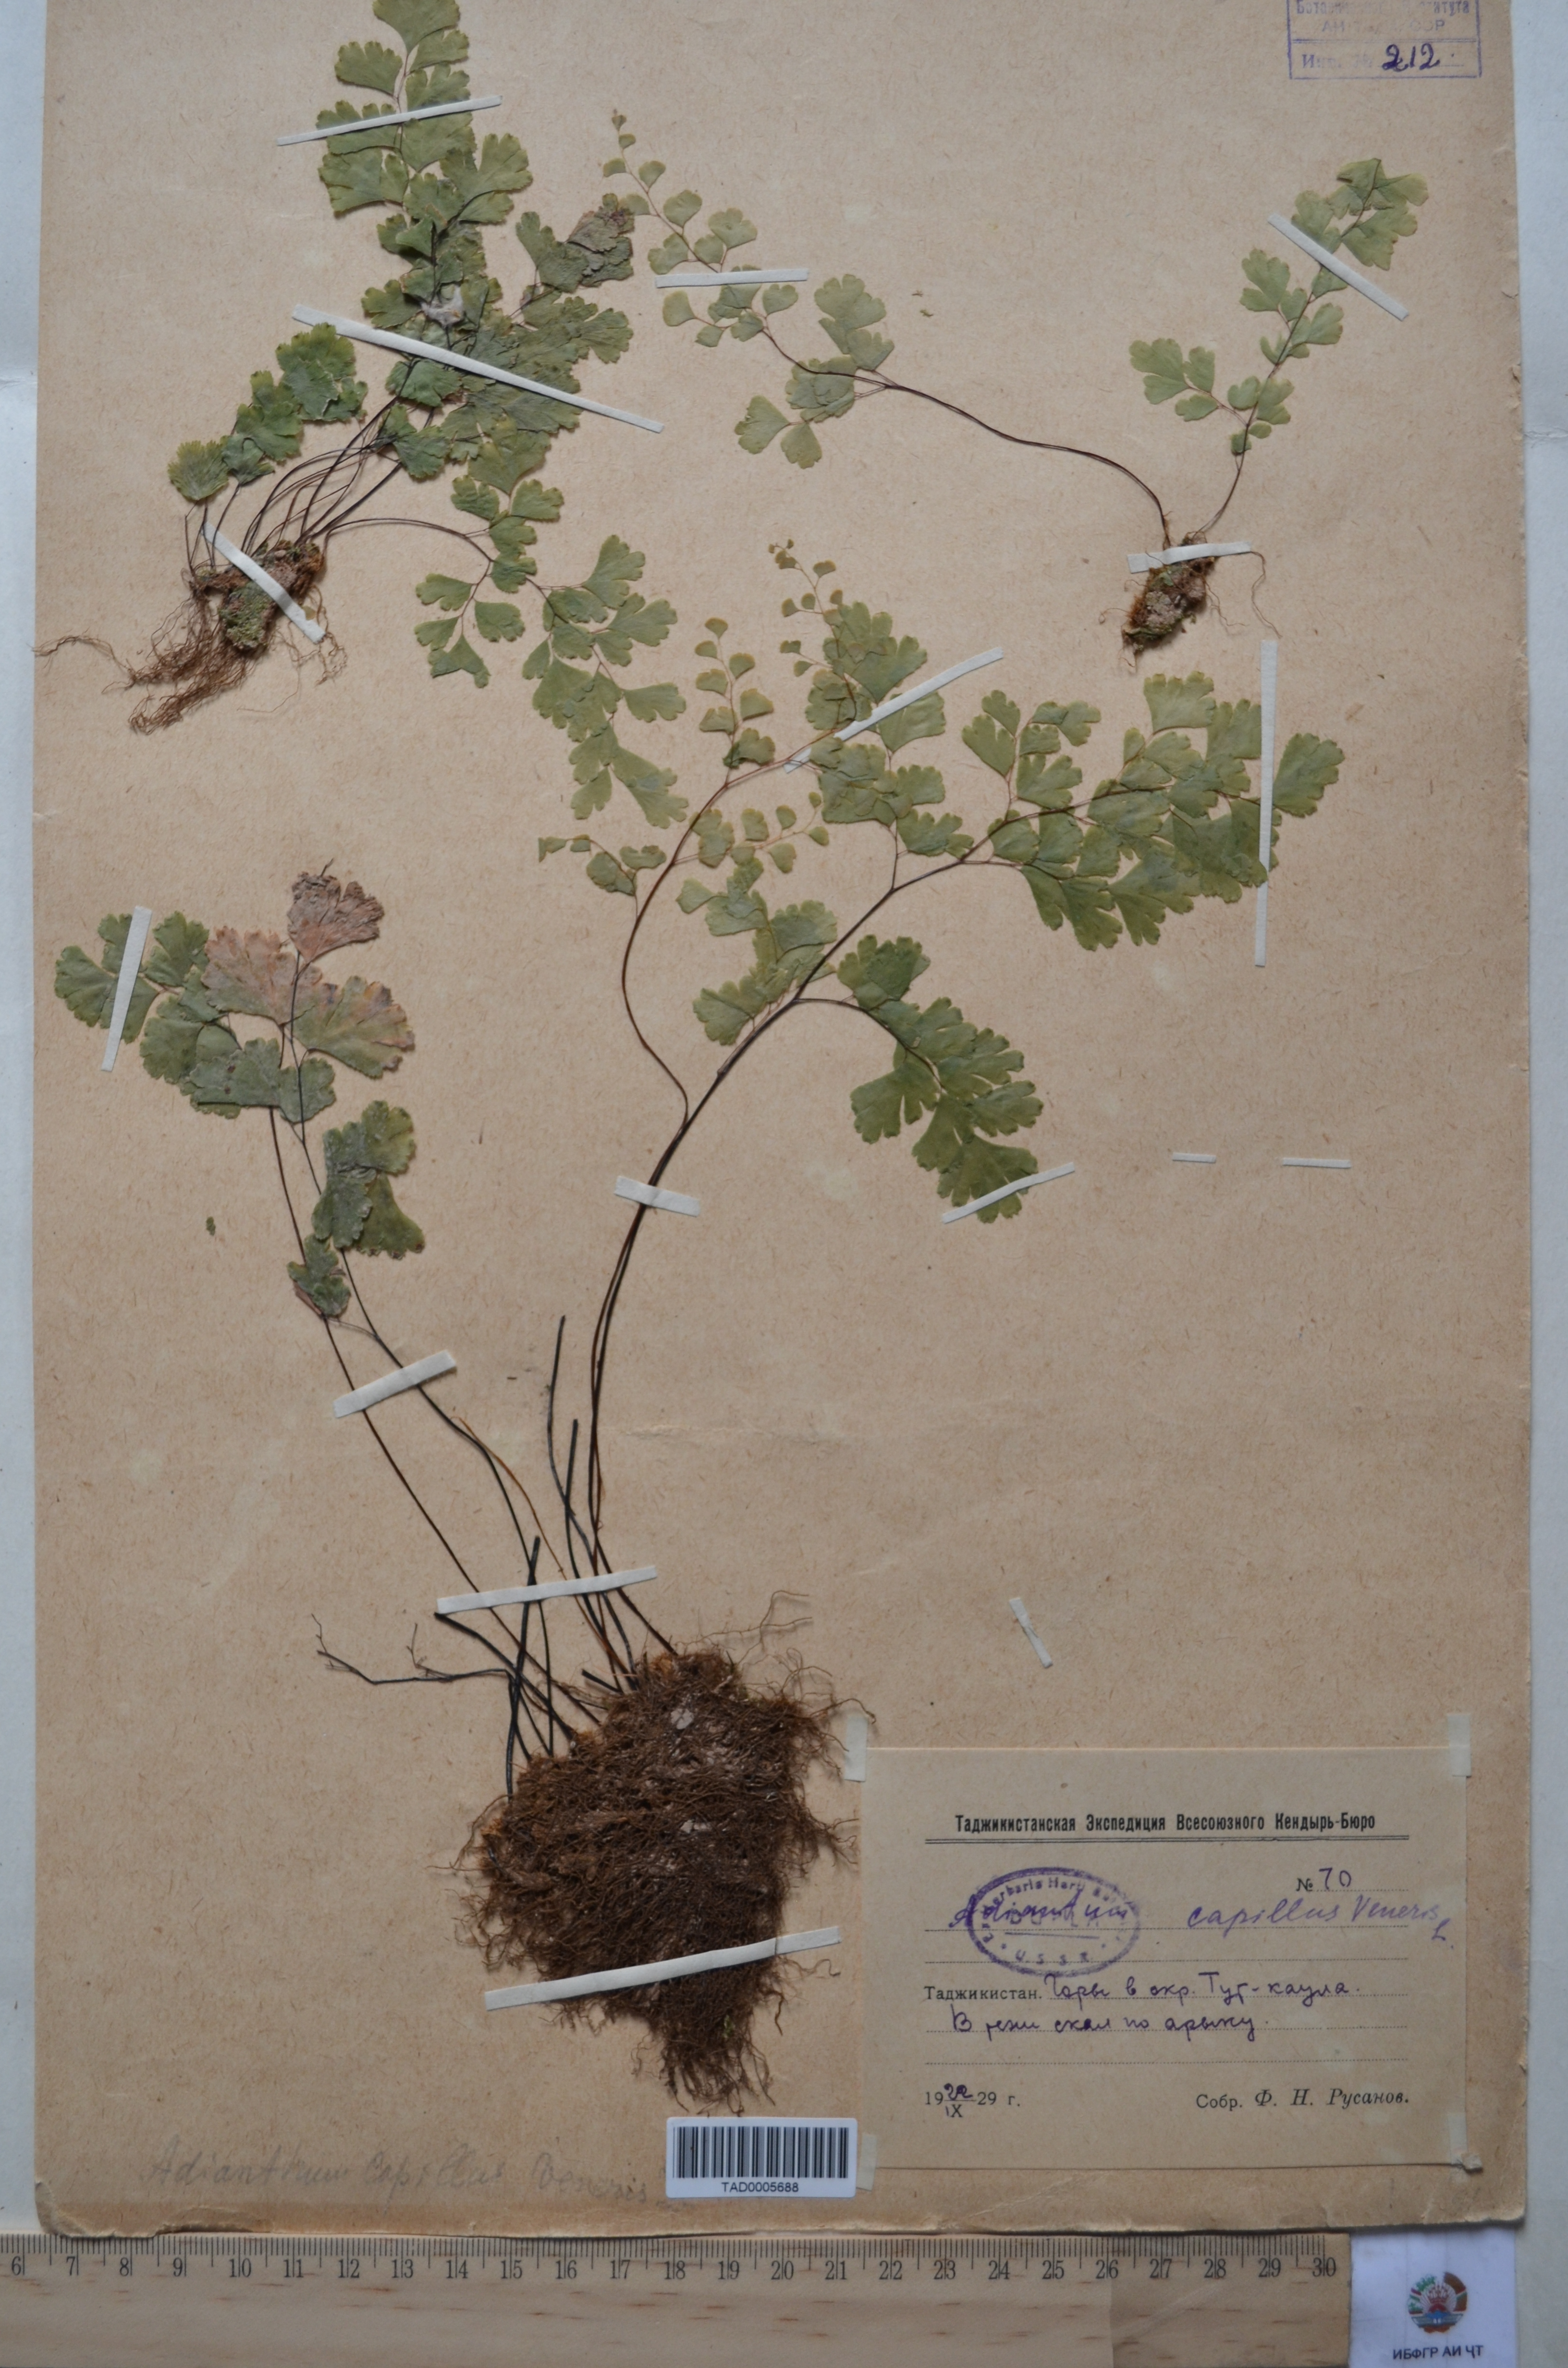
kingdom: Plantae
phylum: Tracheophyta
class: Polypodiopsida
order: Polypodiales
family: Pteridaceae
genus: Adiantum
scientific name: Adiantum capillus-veneris
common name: Maidenhair fern
